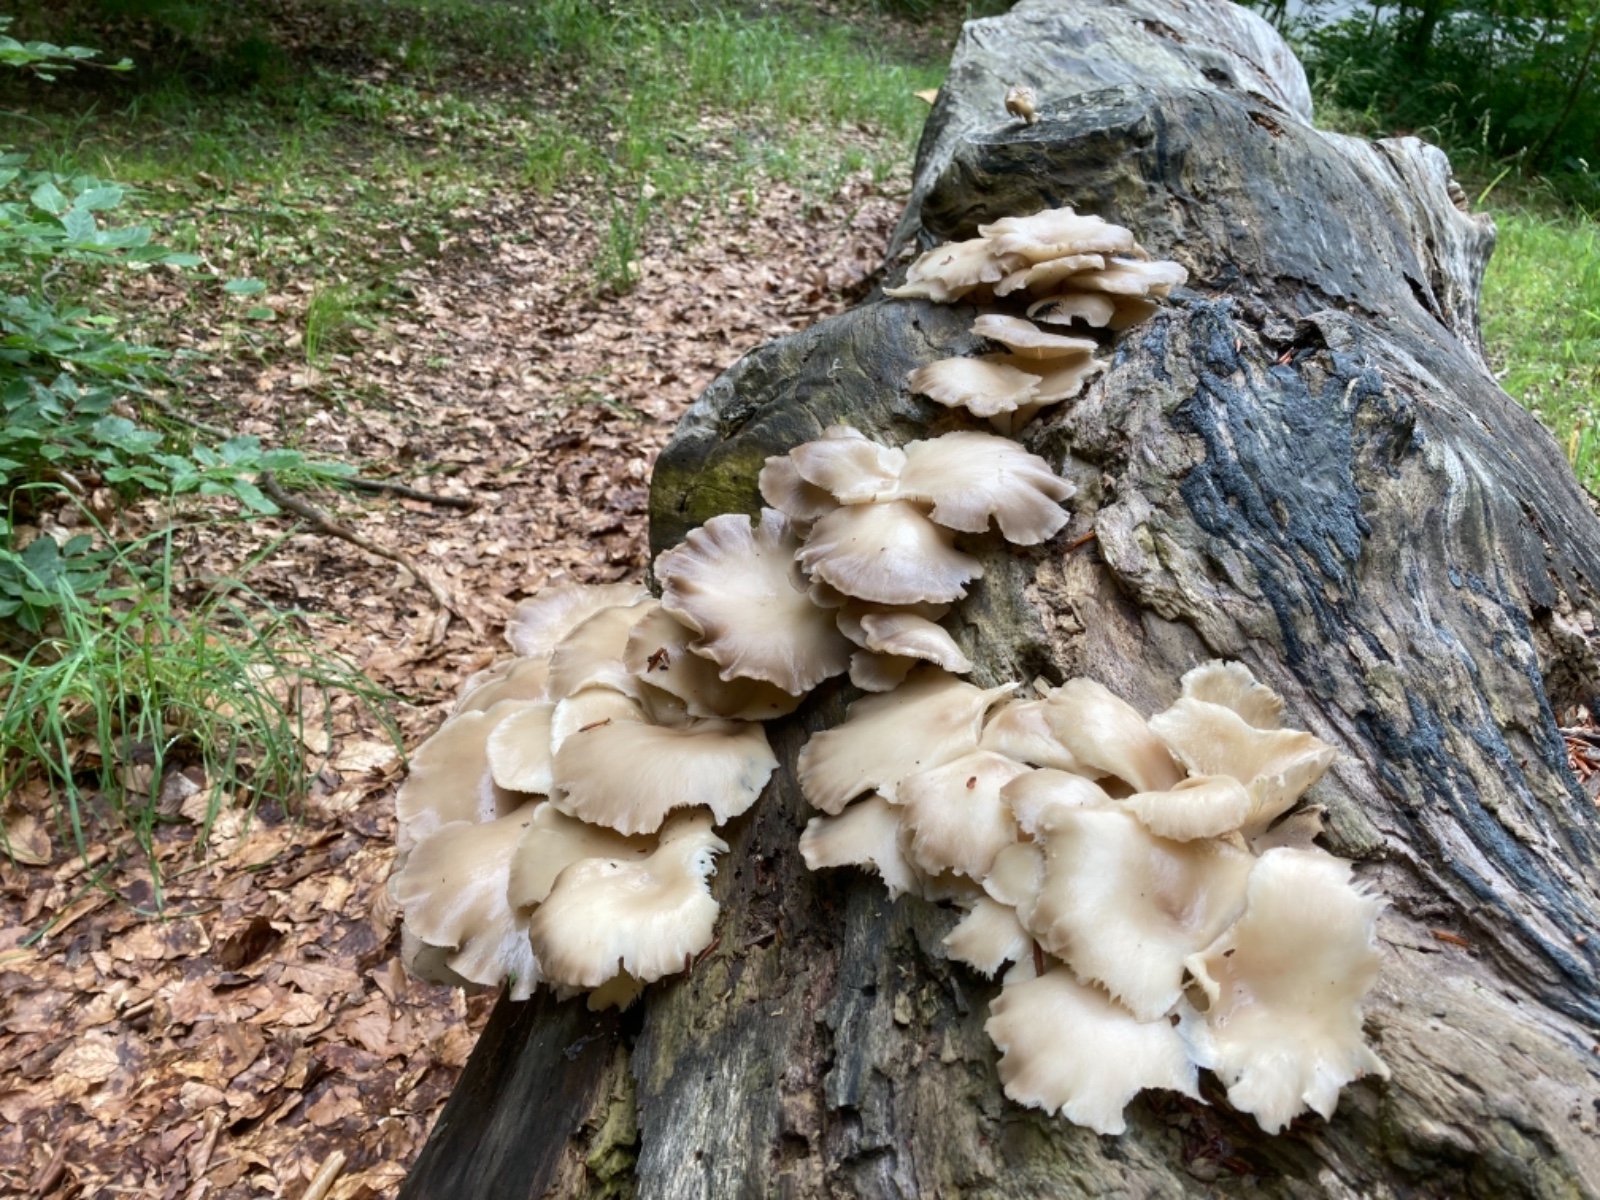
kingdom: Fungi
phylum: Basidiomycota
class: Agaricomycetes
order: Agaricales
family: Pleurotaceae
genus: Pleurotus
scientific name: Pleurotus pulmonarius
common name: sommer-østershat
